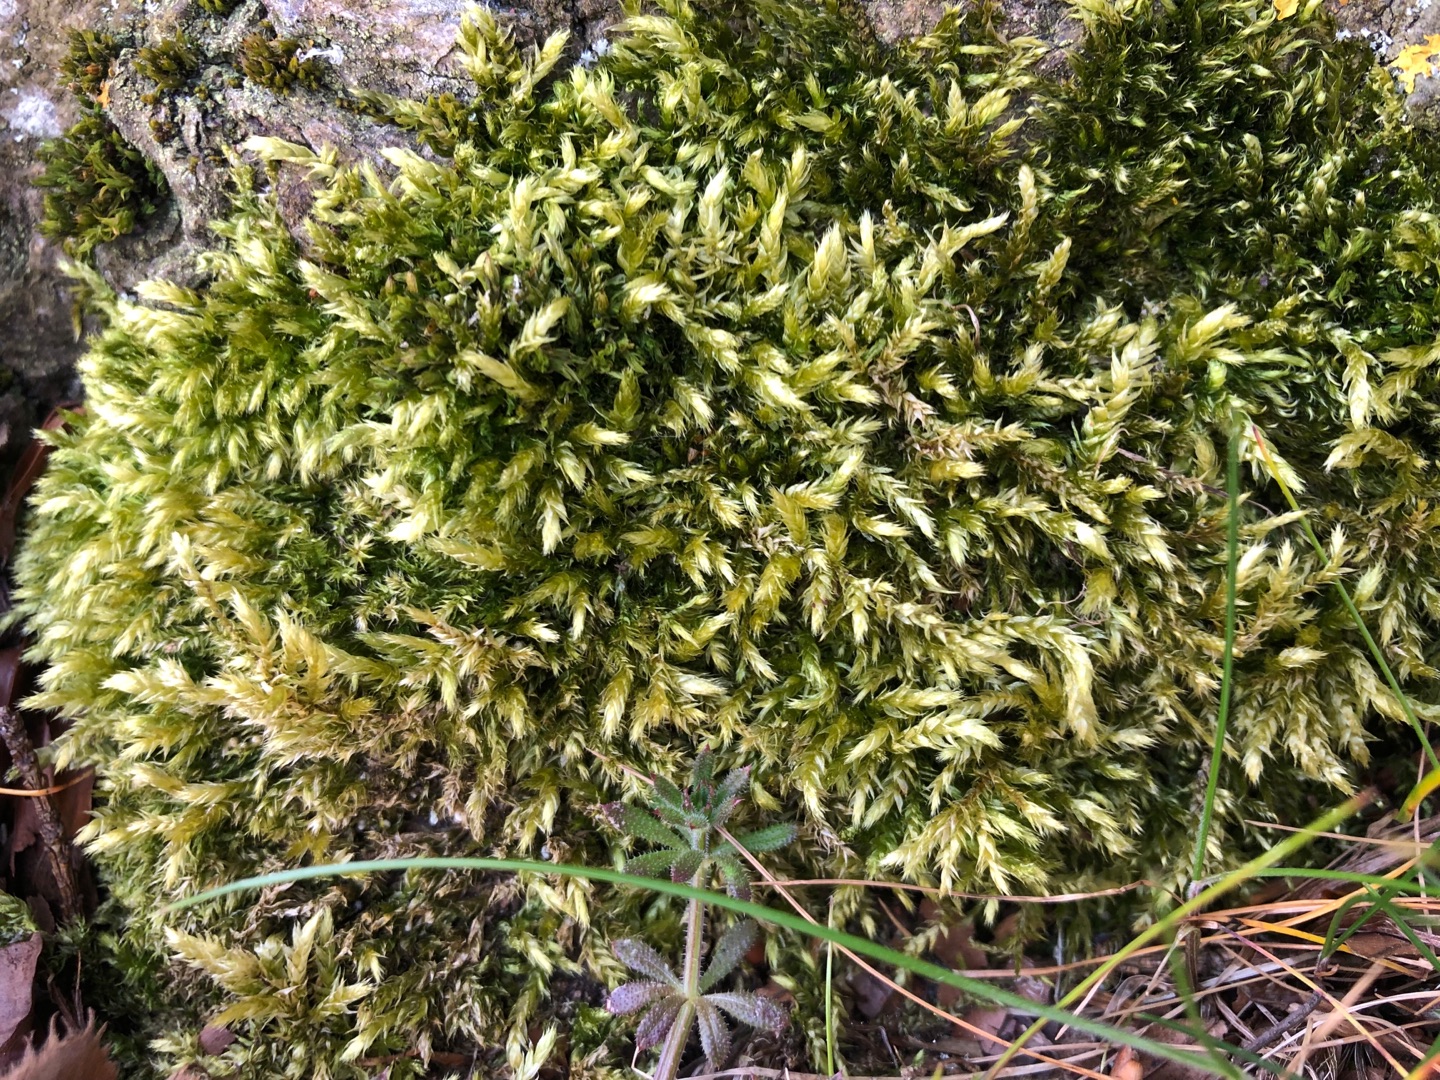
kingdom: Plantae
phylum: Bryophyta
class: Bryopsida
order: Hypnales
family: Brachytheciaceae
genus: Brachythecium
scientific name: Brachythecium rutabulum
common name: Almindelig kortkapsel
